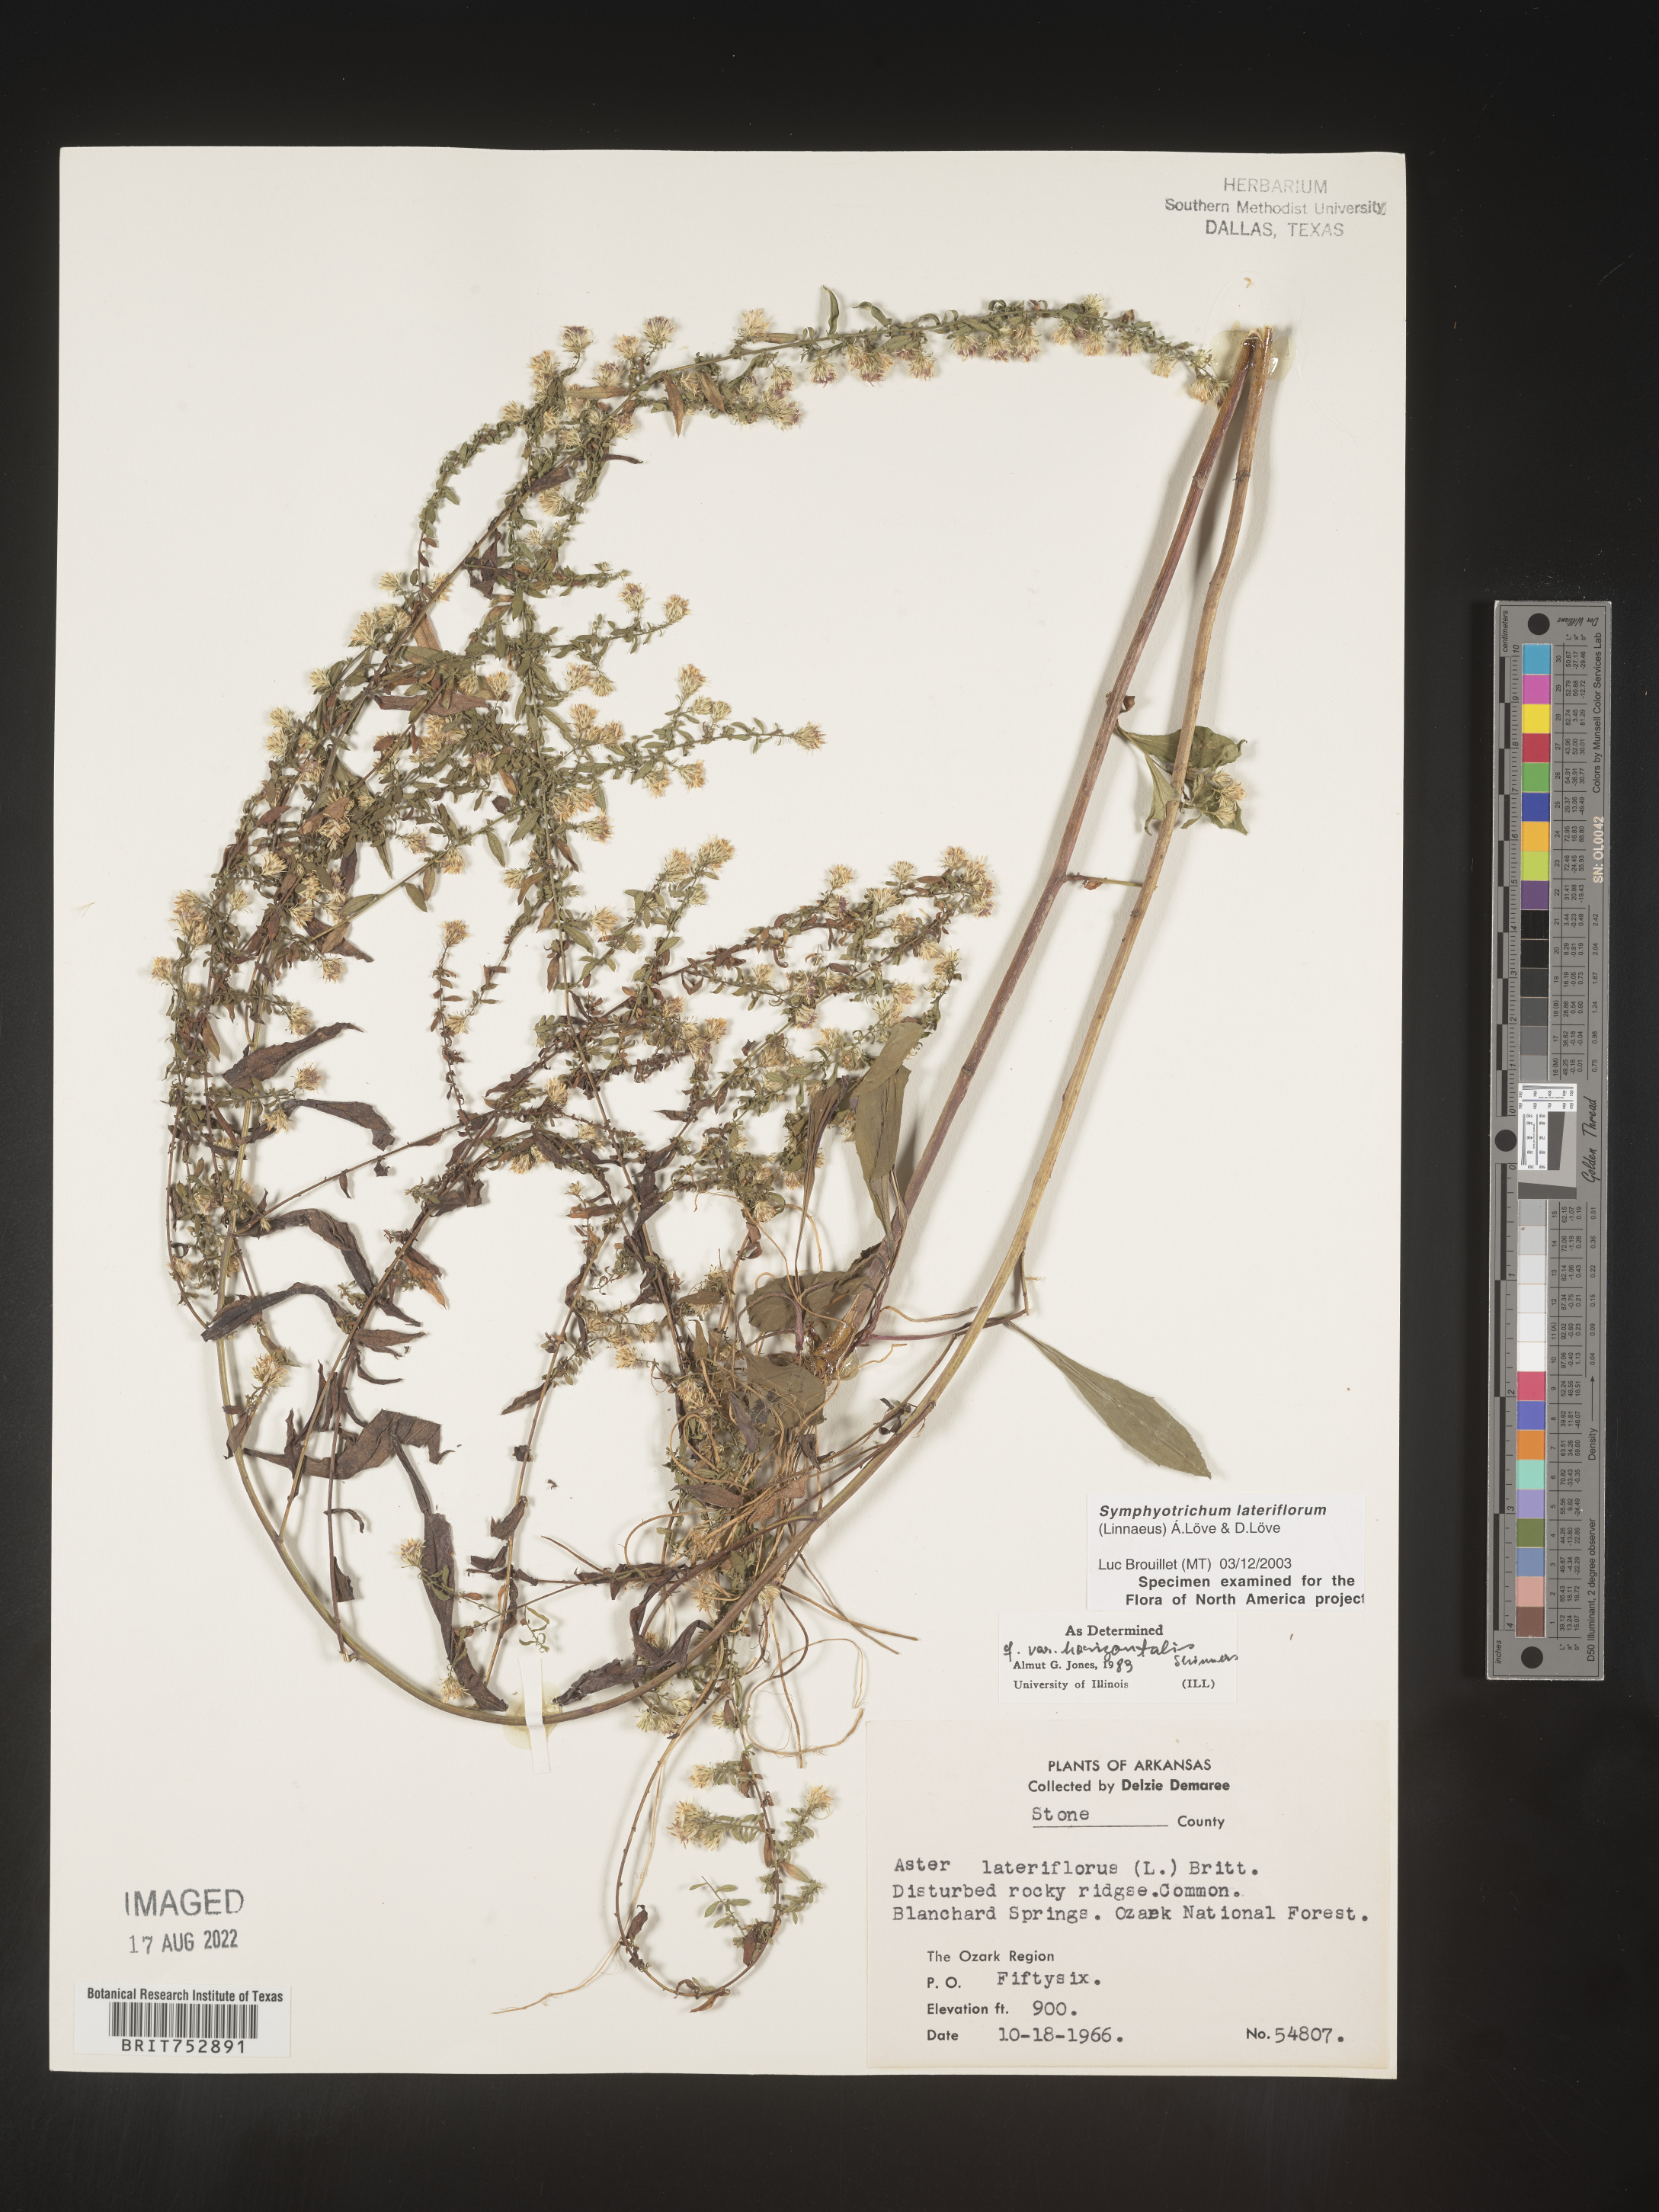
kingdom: Plantae
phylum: Tracheophyta
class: Magnoliopsida
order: Asterales
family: Asteraceae
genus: Symphyotrichum
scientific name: Symphyotrichum lateriflorum
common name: Calico aster
